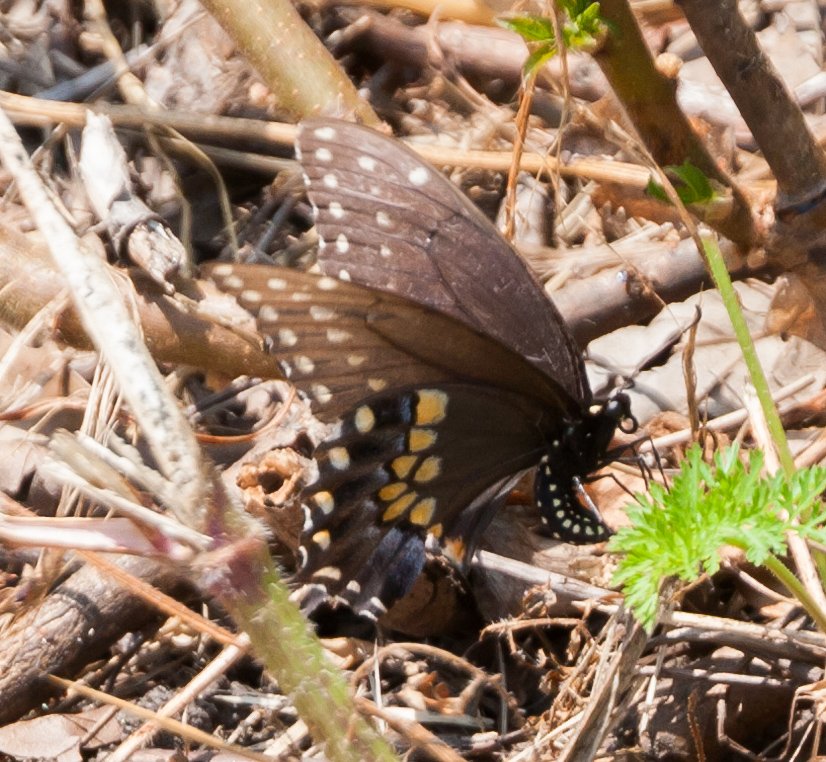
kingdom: Animalia
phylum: Arthropoda
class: Insecta
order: Lepidoptera
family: Papilionidae
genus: Papilio
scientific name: Papilio polyxenes
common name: Black Swallowtail
